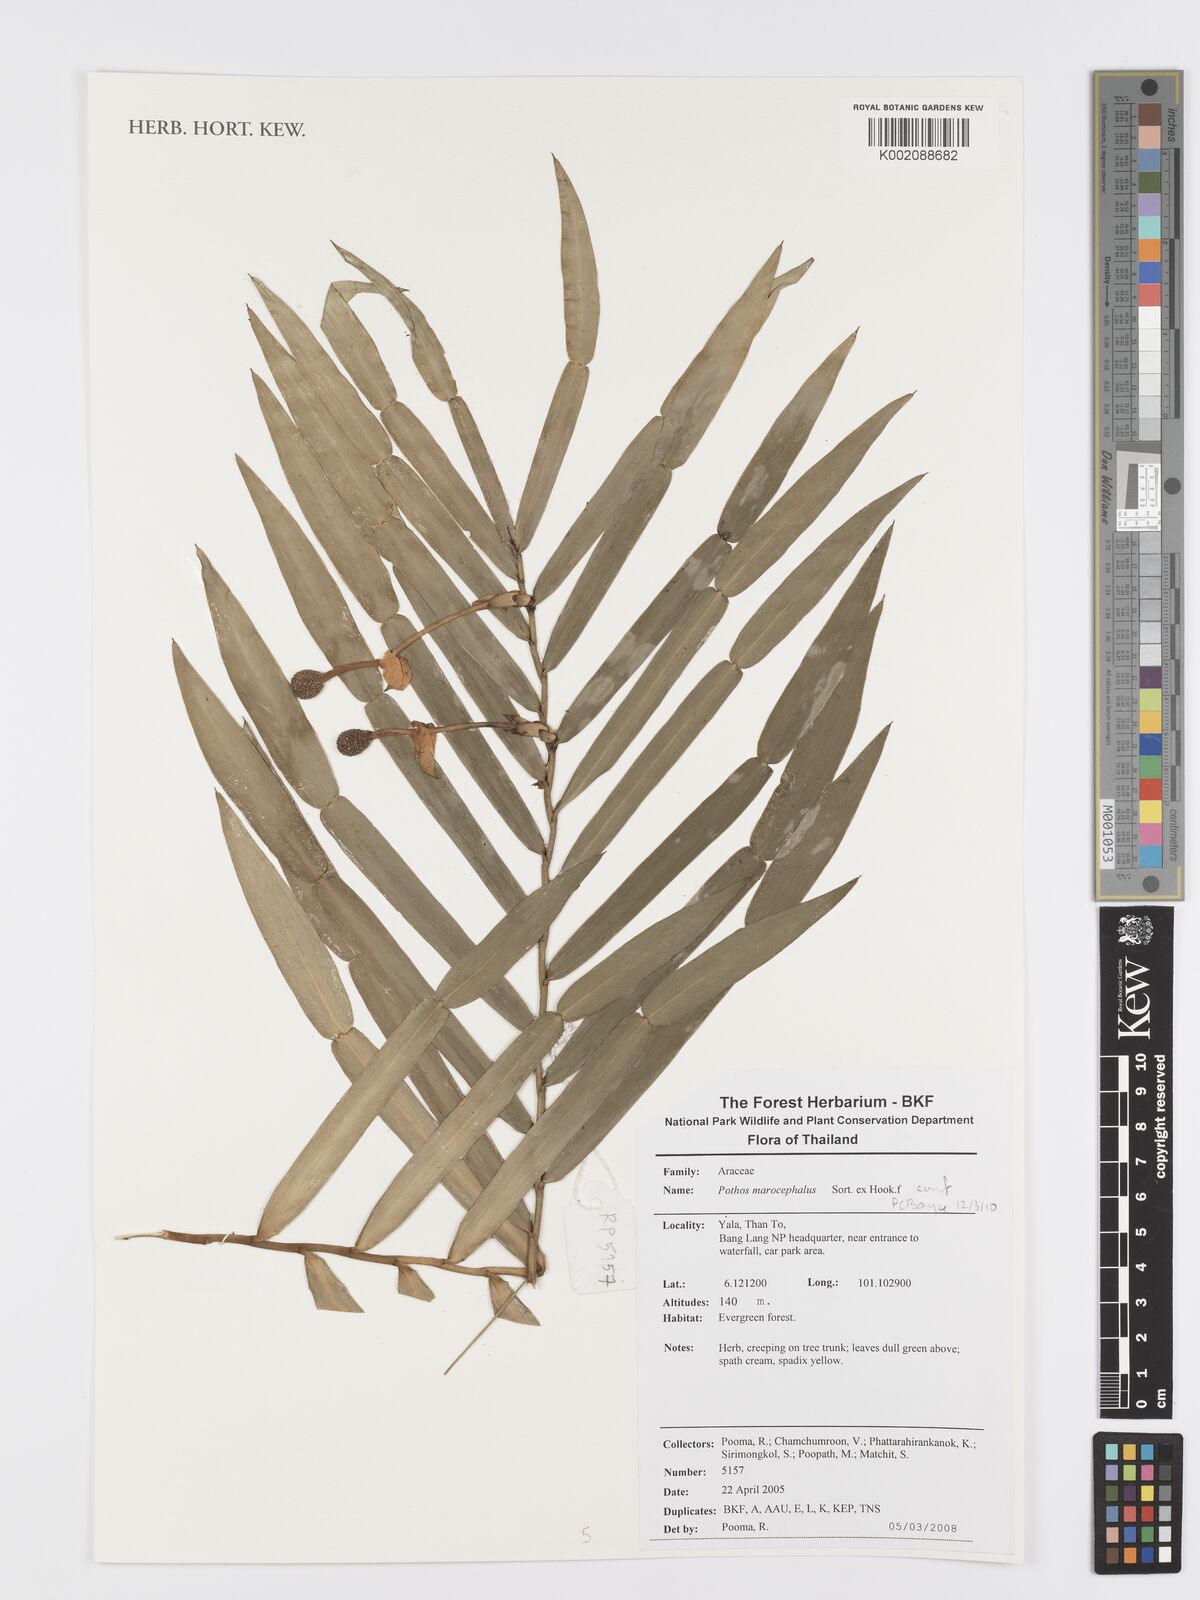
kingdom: Plantae
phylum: Tracheophyta
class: Liliopsida
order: Alismatales
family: Araceae
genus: Pothos
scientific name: Pothos macrocephalus
